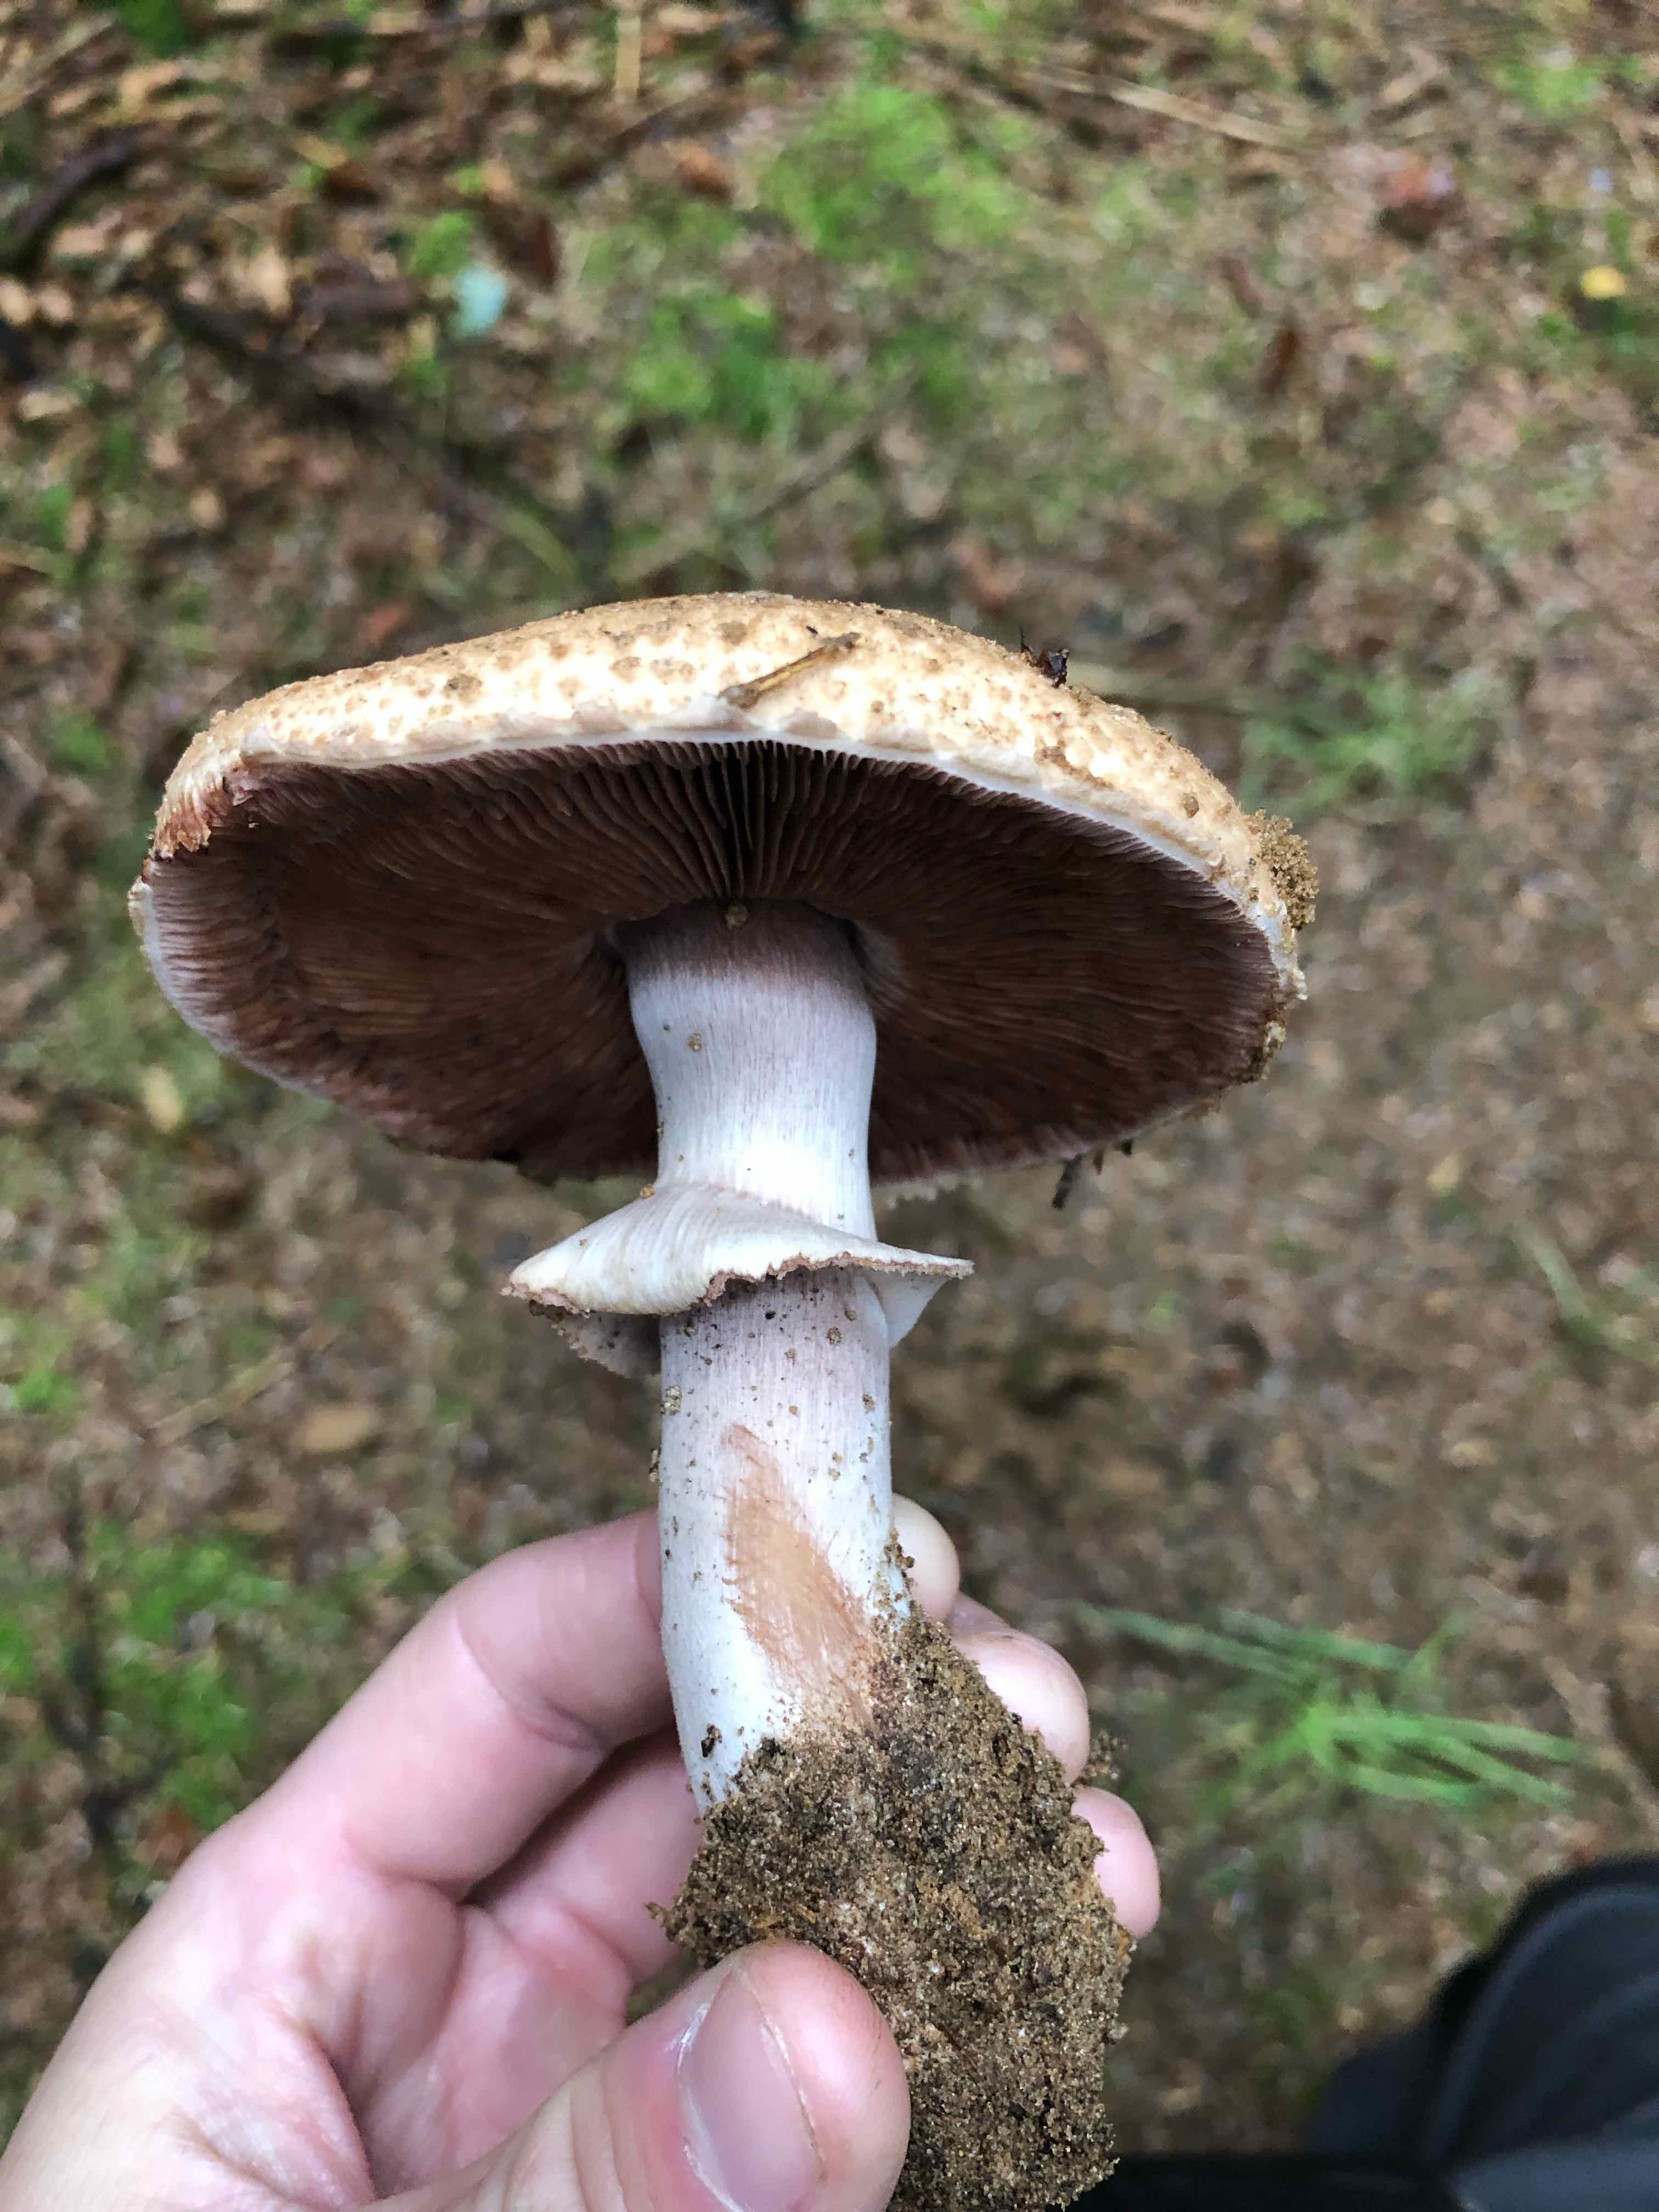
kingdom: Fungi
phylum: Basidiomycota
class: Agaricomycetes
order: Agaricales
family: Agaricaceae
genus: Agaricus
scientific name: Agaricus
